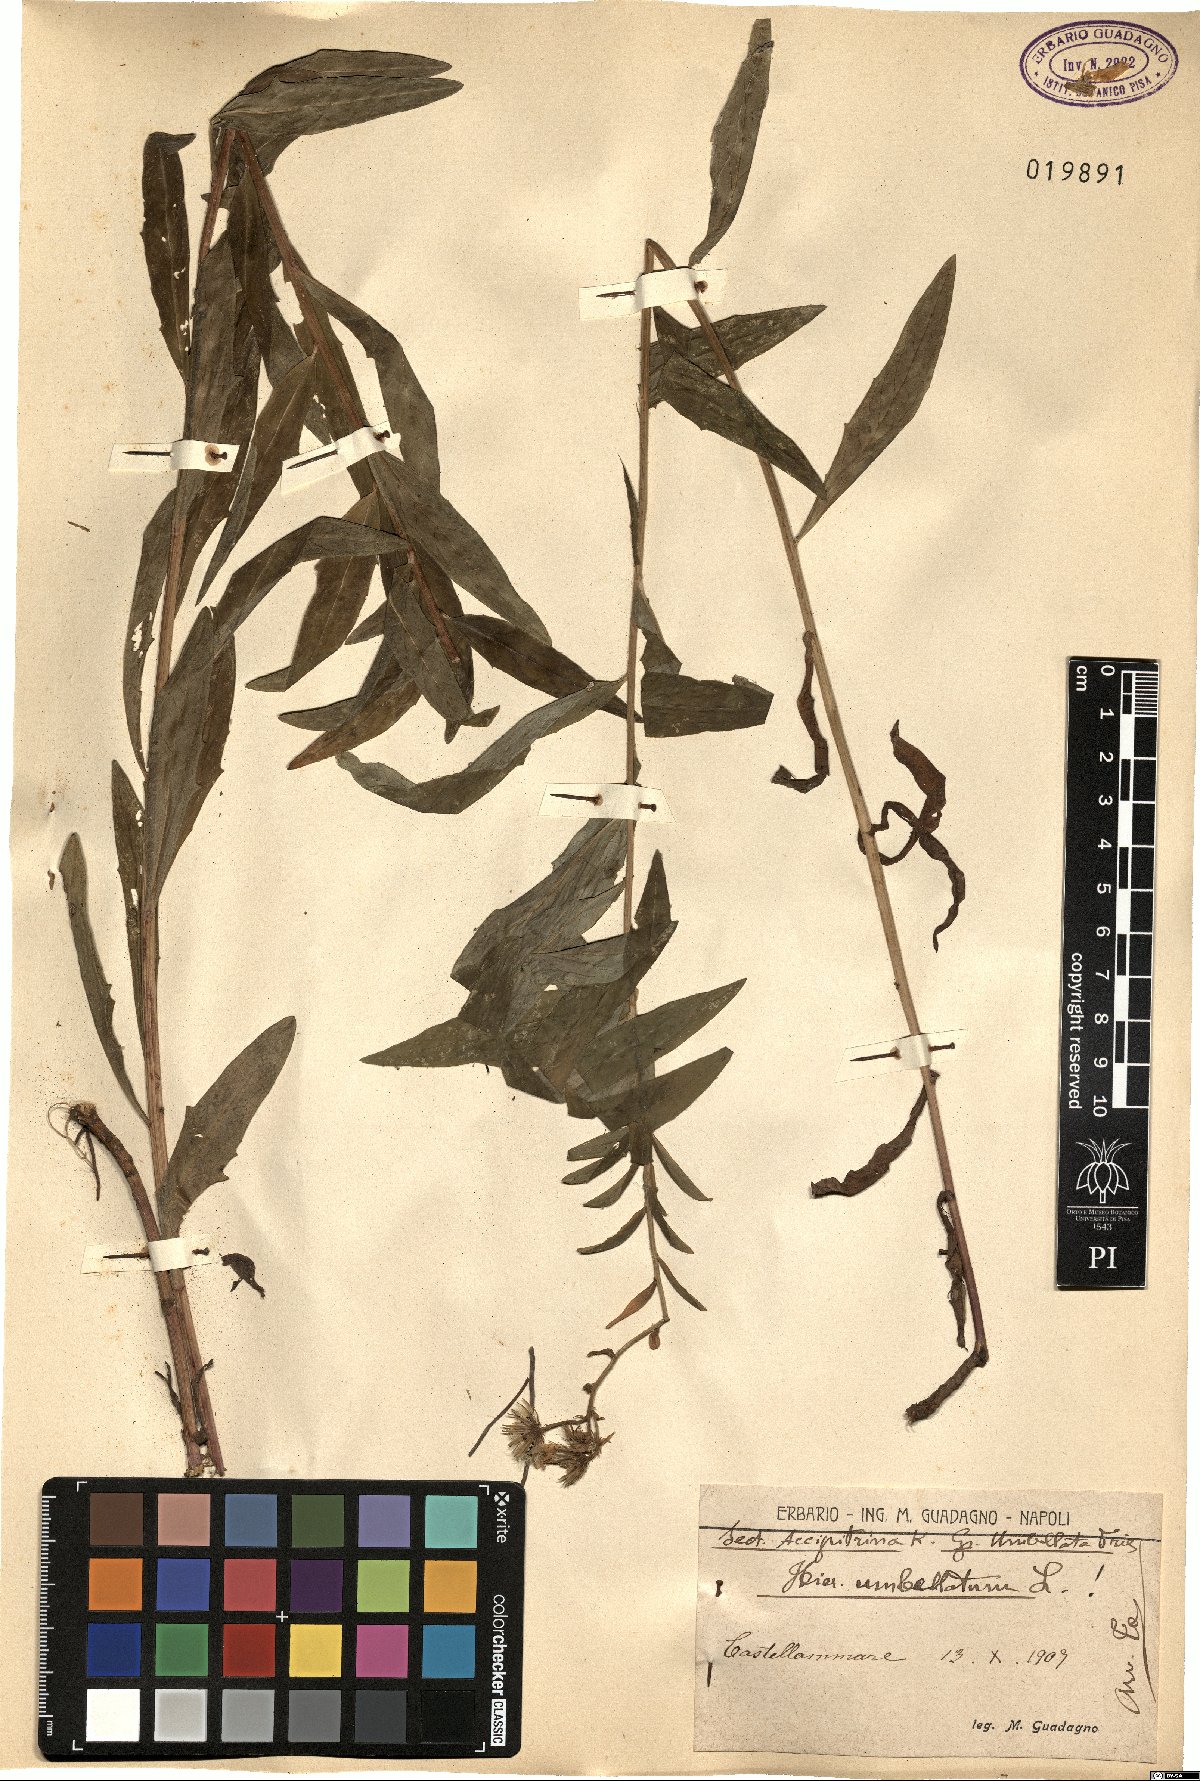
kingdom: Plantae
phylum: Tracheophyta
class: Magnoliopsida
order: Asterales
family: Asteraceae
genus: Hieracium
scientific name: Hieracium umbellatum
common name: Northern hawkweed
